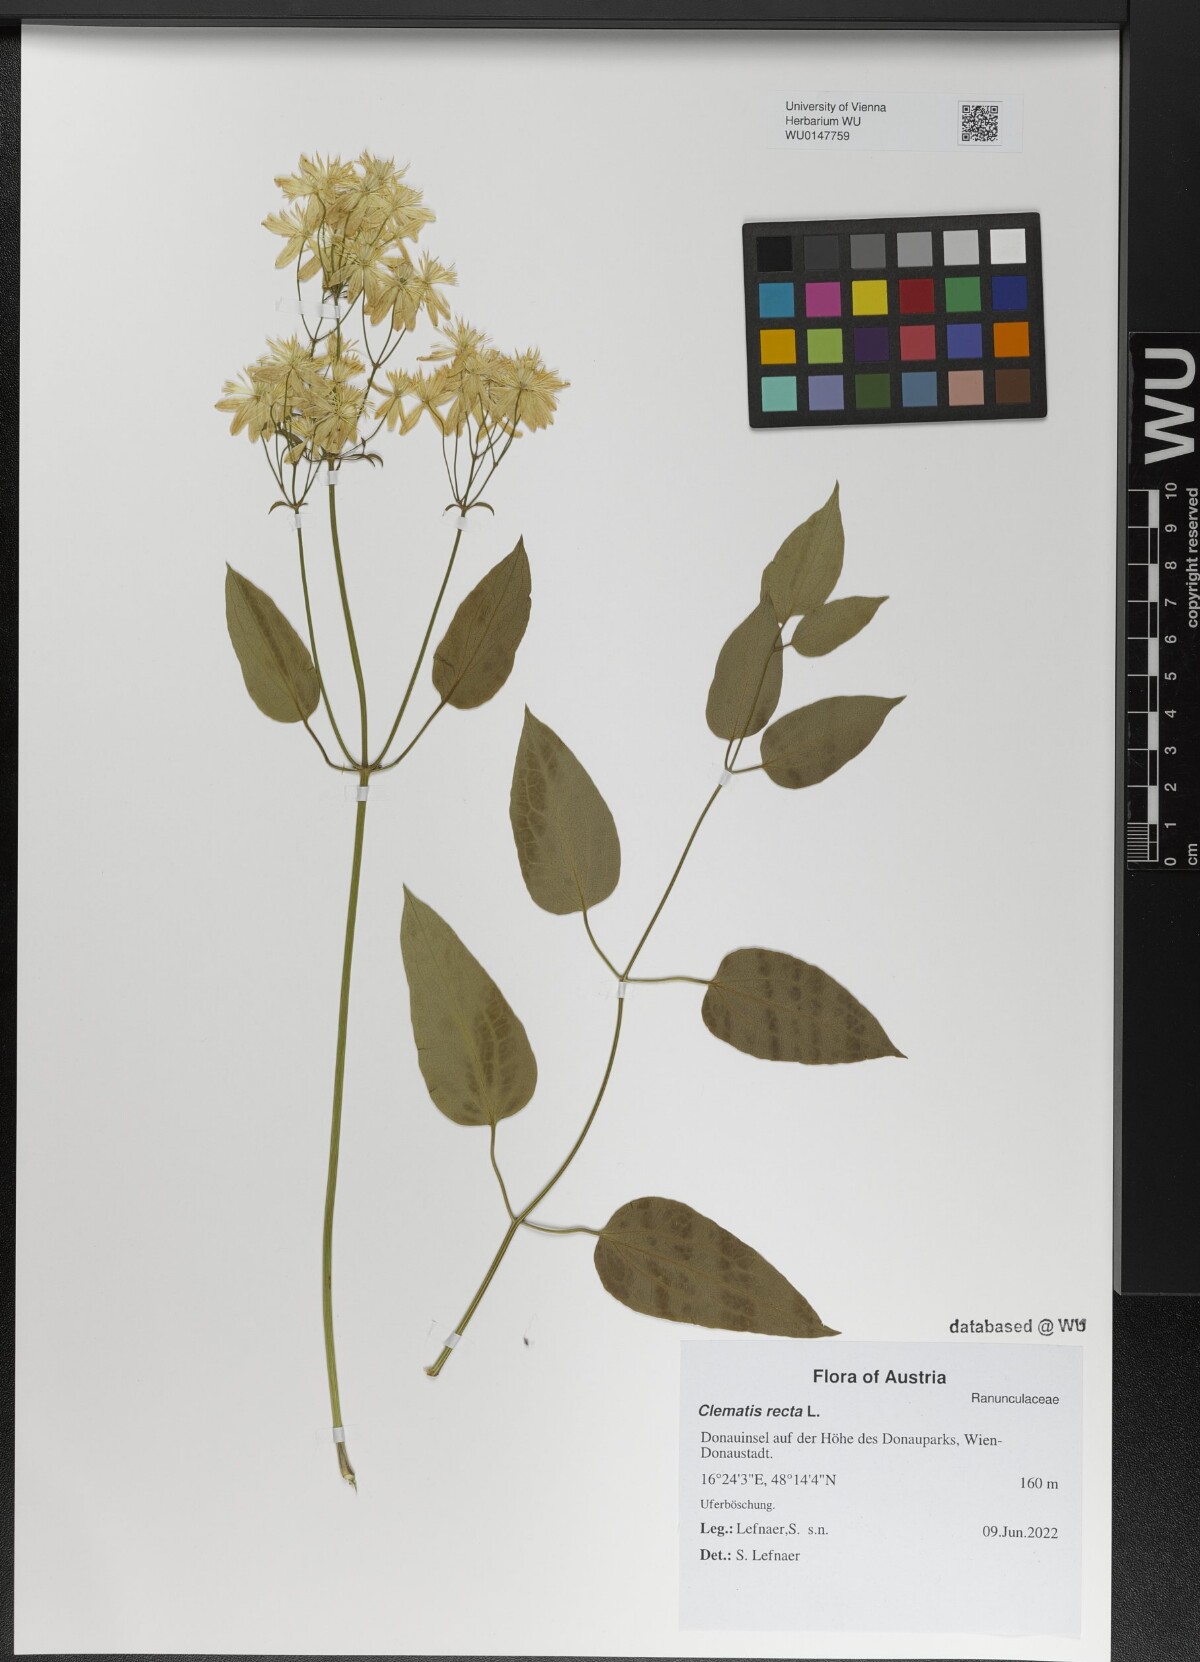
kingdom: Plantae
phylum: Tracheophyta
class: Magnoliopsida
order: Ranunculales
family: Ranunculaceae
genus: Clematis
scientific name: Clematis recta
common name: Ground clematis
